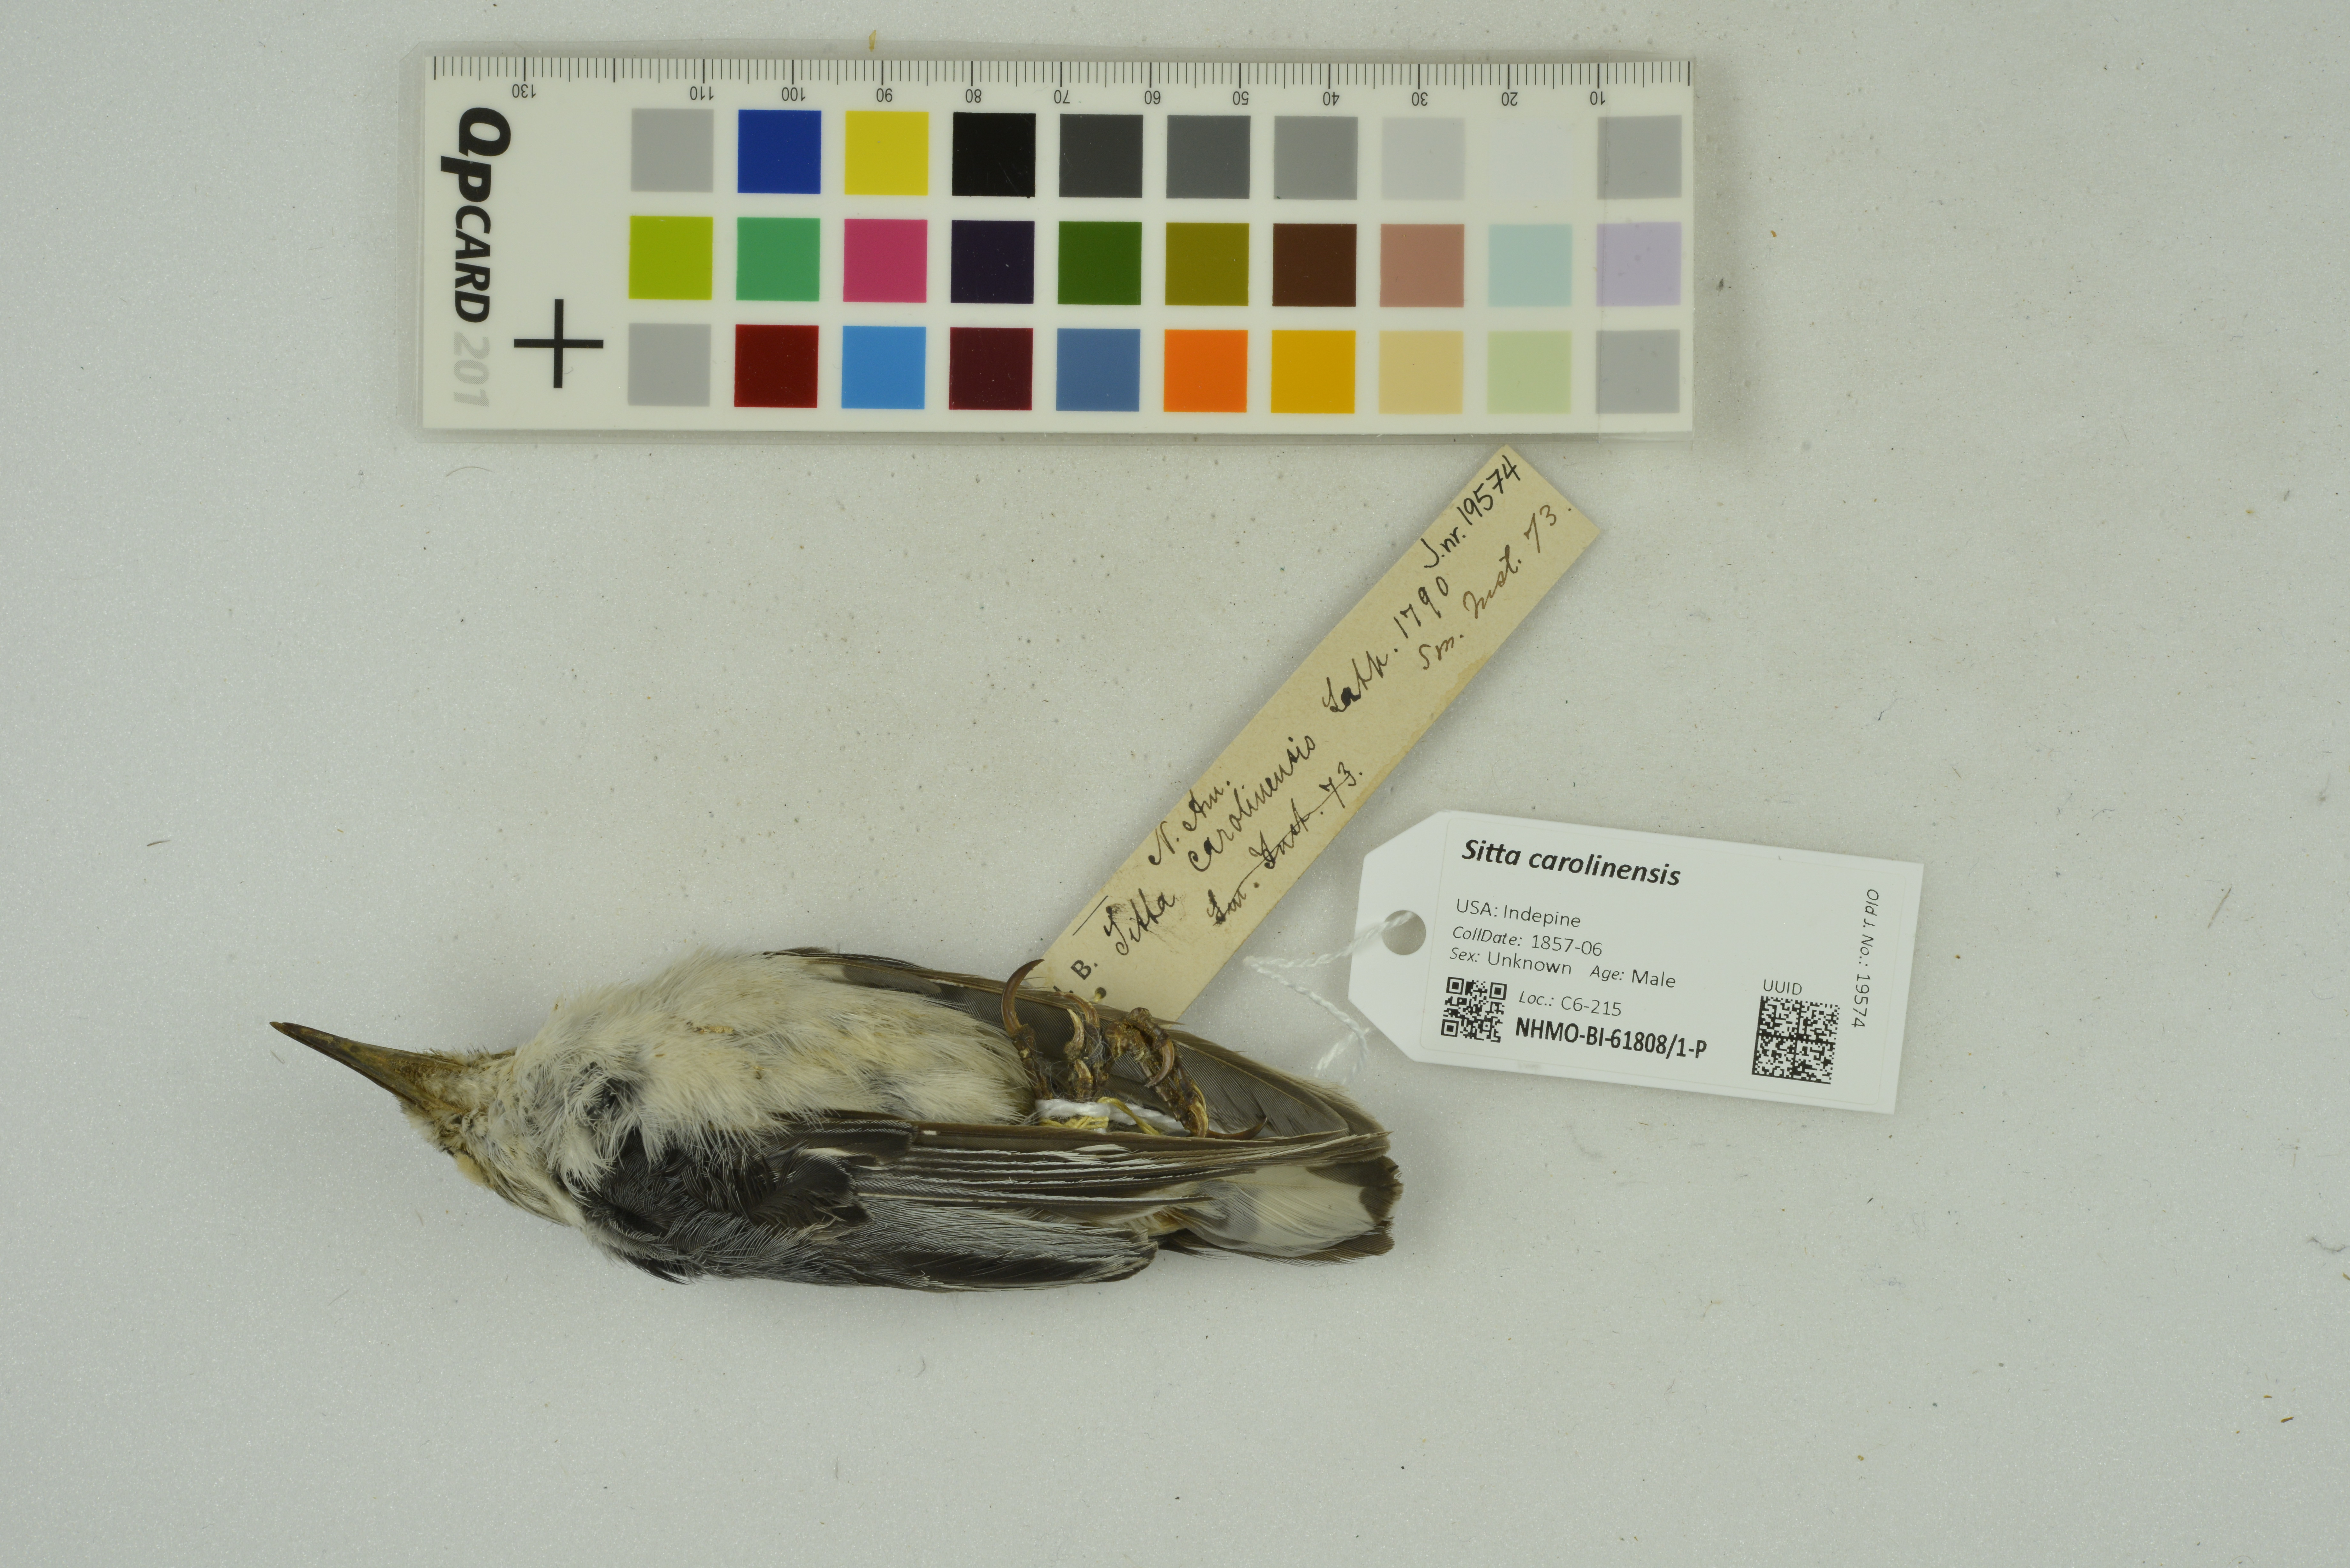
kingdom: Animalia
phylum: Chordata
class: Aves
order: Passeriformes
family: Sittidae
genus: Sitta
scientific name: Sitta carolinensis
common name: White-breasted nuthatch
